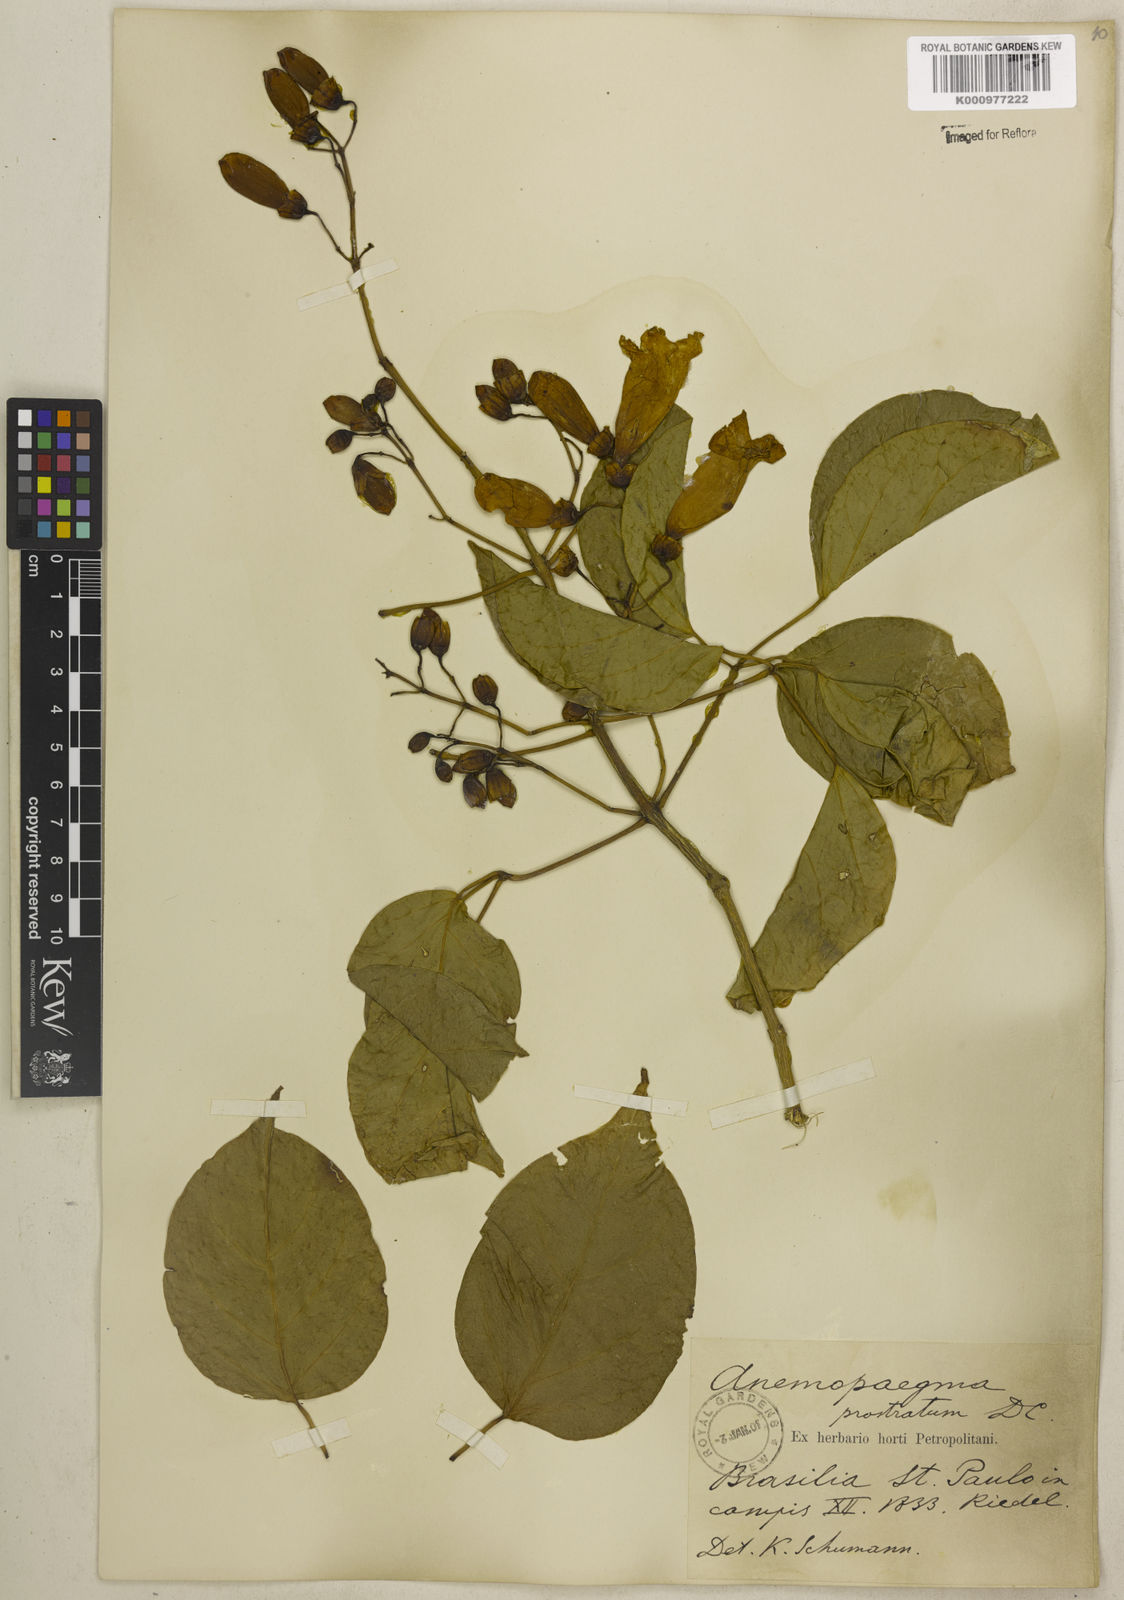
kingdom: Plantae
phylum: Tracheophyta
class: Magnoliopsida
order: Lamiales
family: Bignoniaceae
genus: Anemopaegma
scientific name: Anemopaegma prostratum
